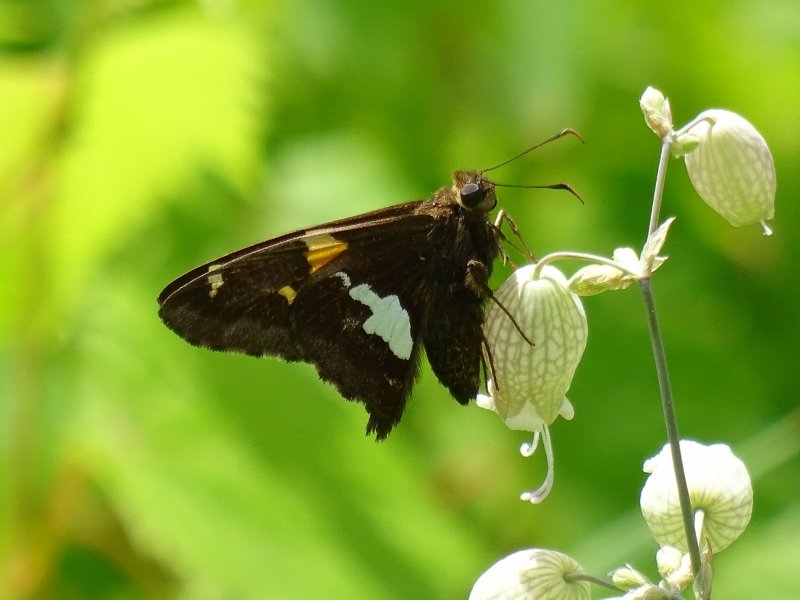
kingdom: Animalia
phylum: Arthropoda
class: Insecta
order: Lepidoptera
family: Hesperiidae
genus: Epargyreus
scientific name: Epargyreus clarus
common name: Silver-spotted Skipper
